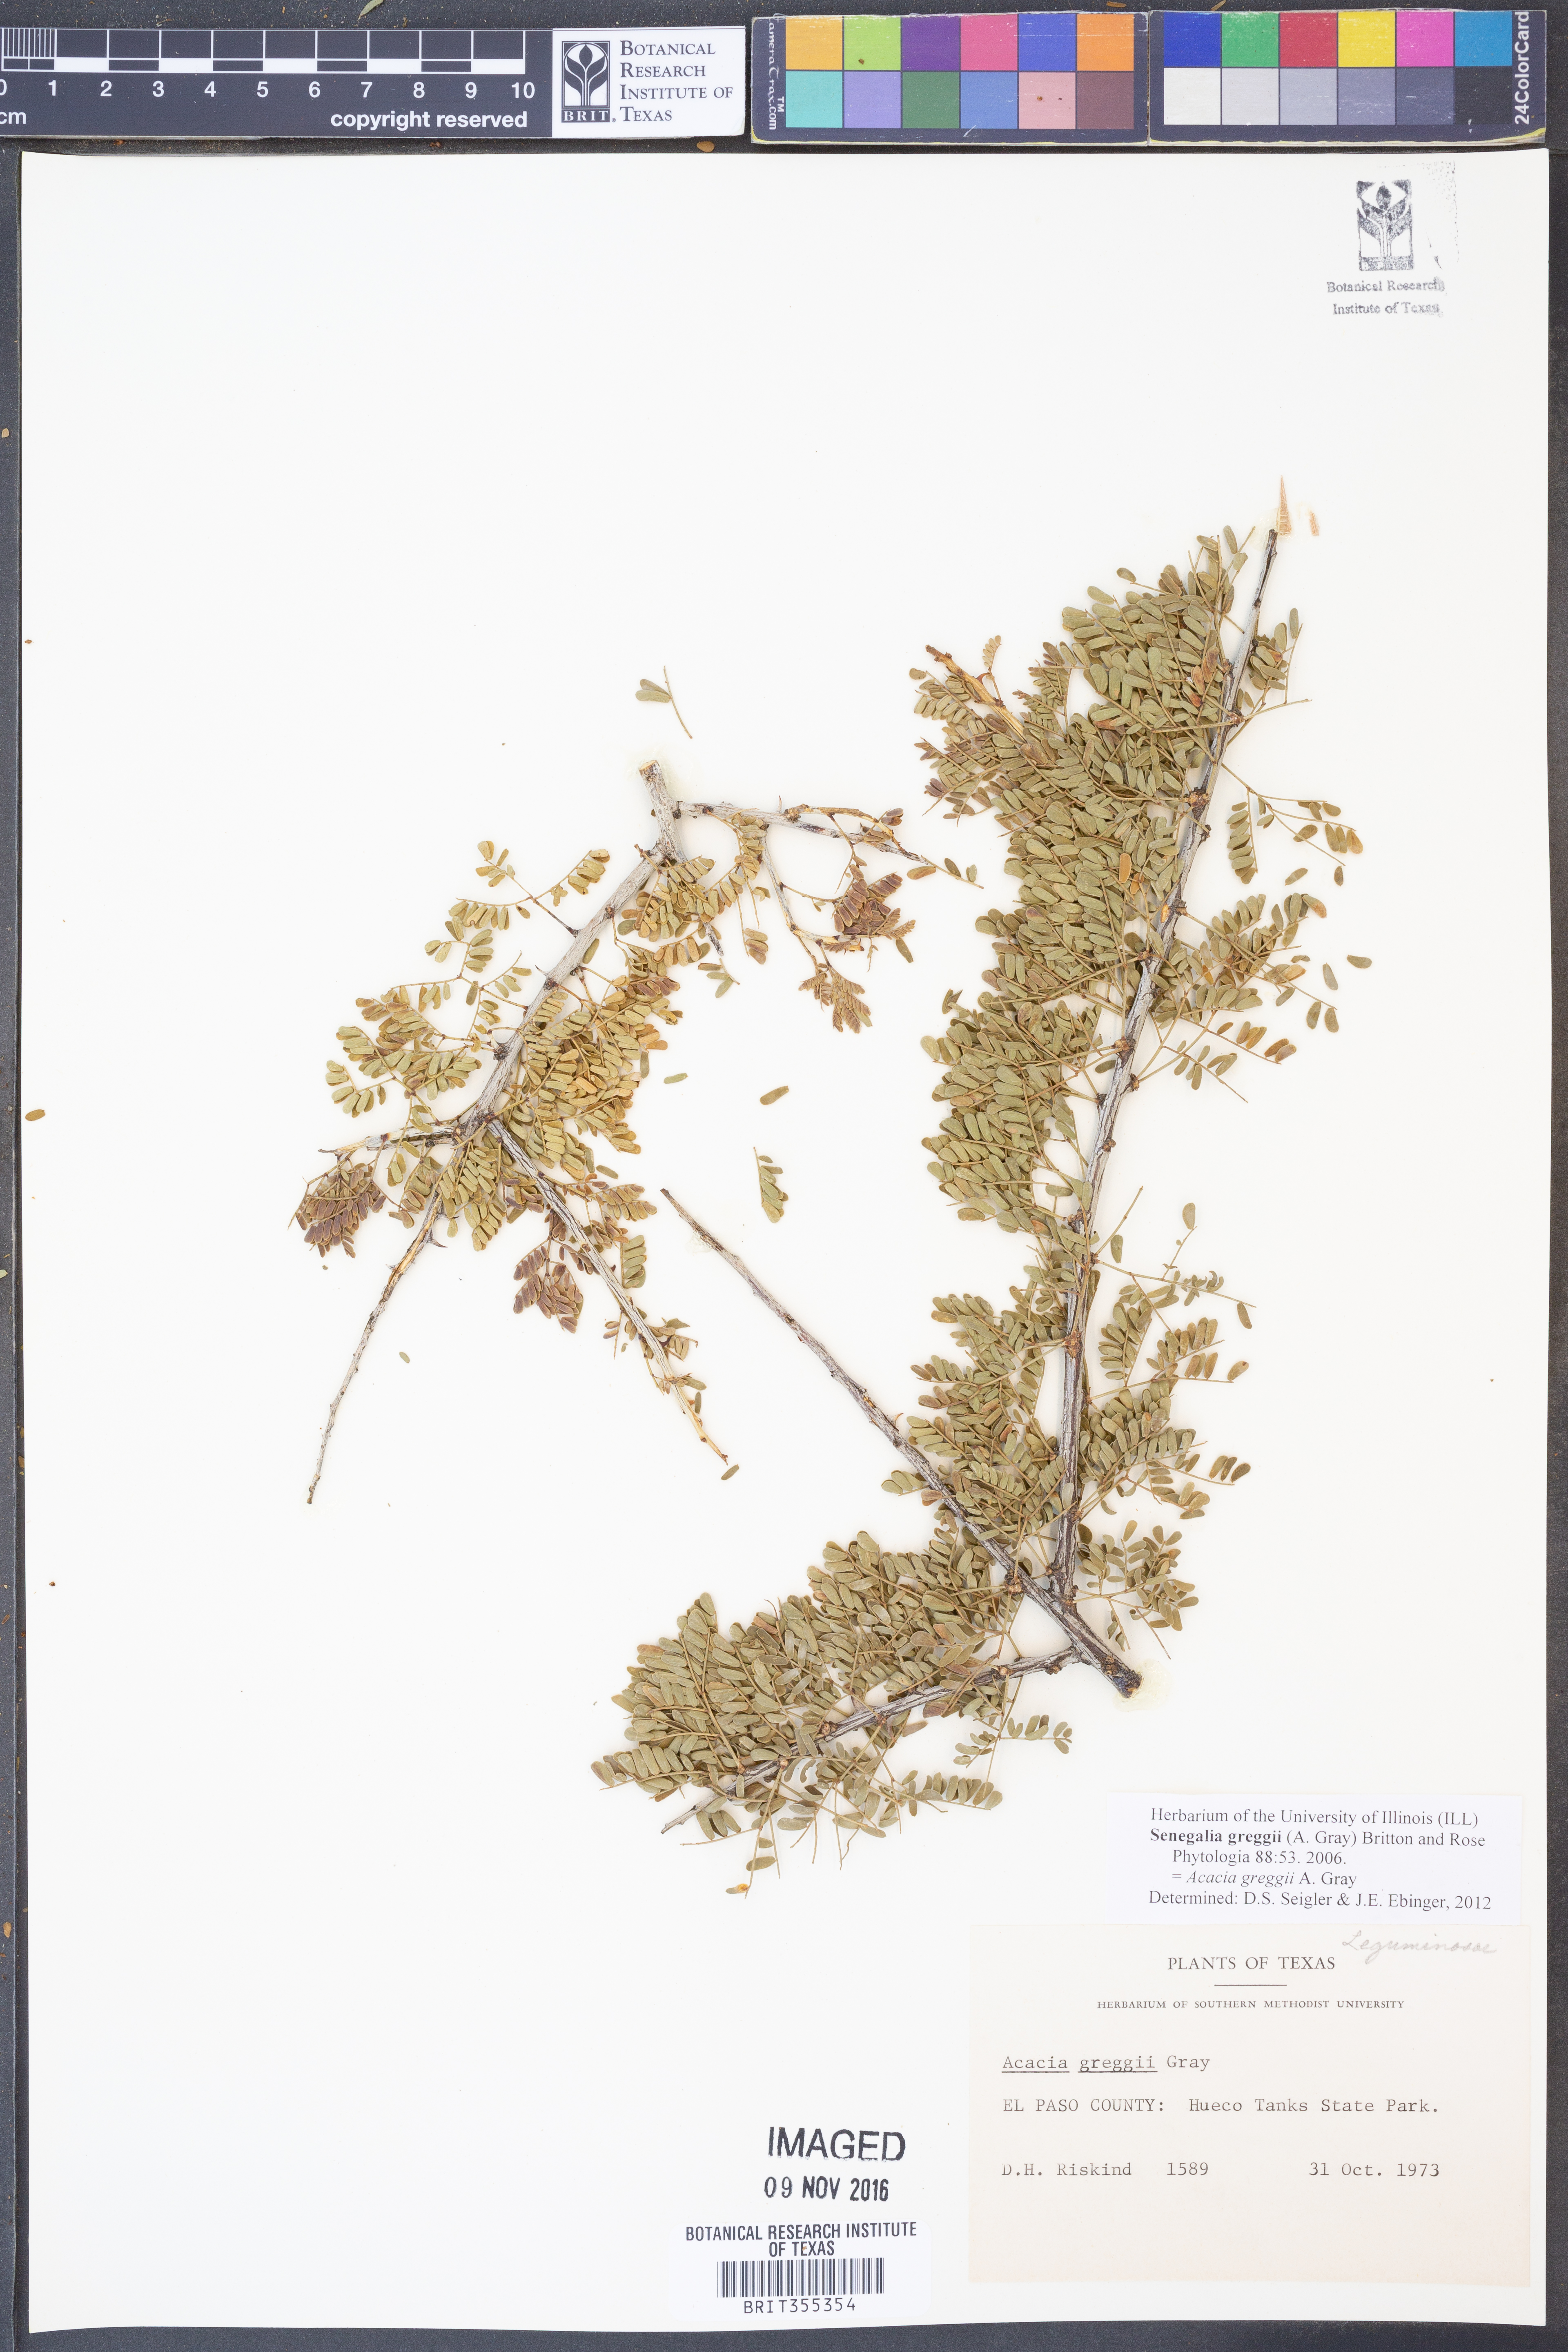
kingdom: Plantae
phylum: Tracheophyta
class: Magnoliopsida
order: Fabales
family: Fabaceae
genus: Senegalia
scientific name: Senegalia greggii
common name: Texas-mimosa
